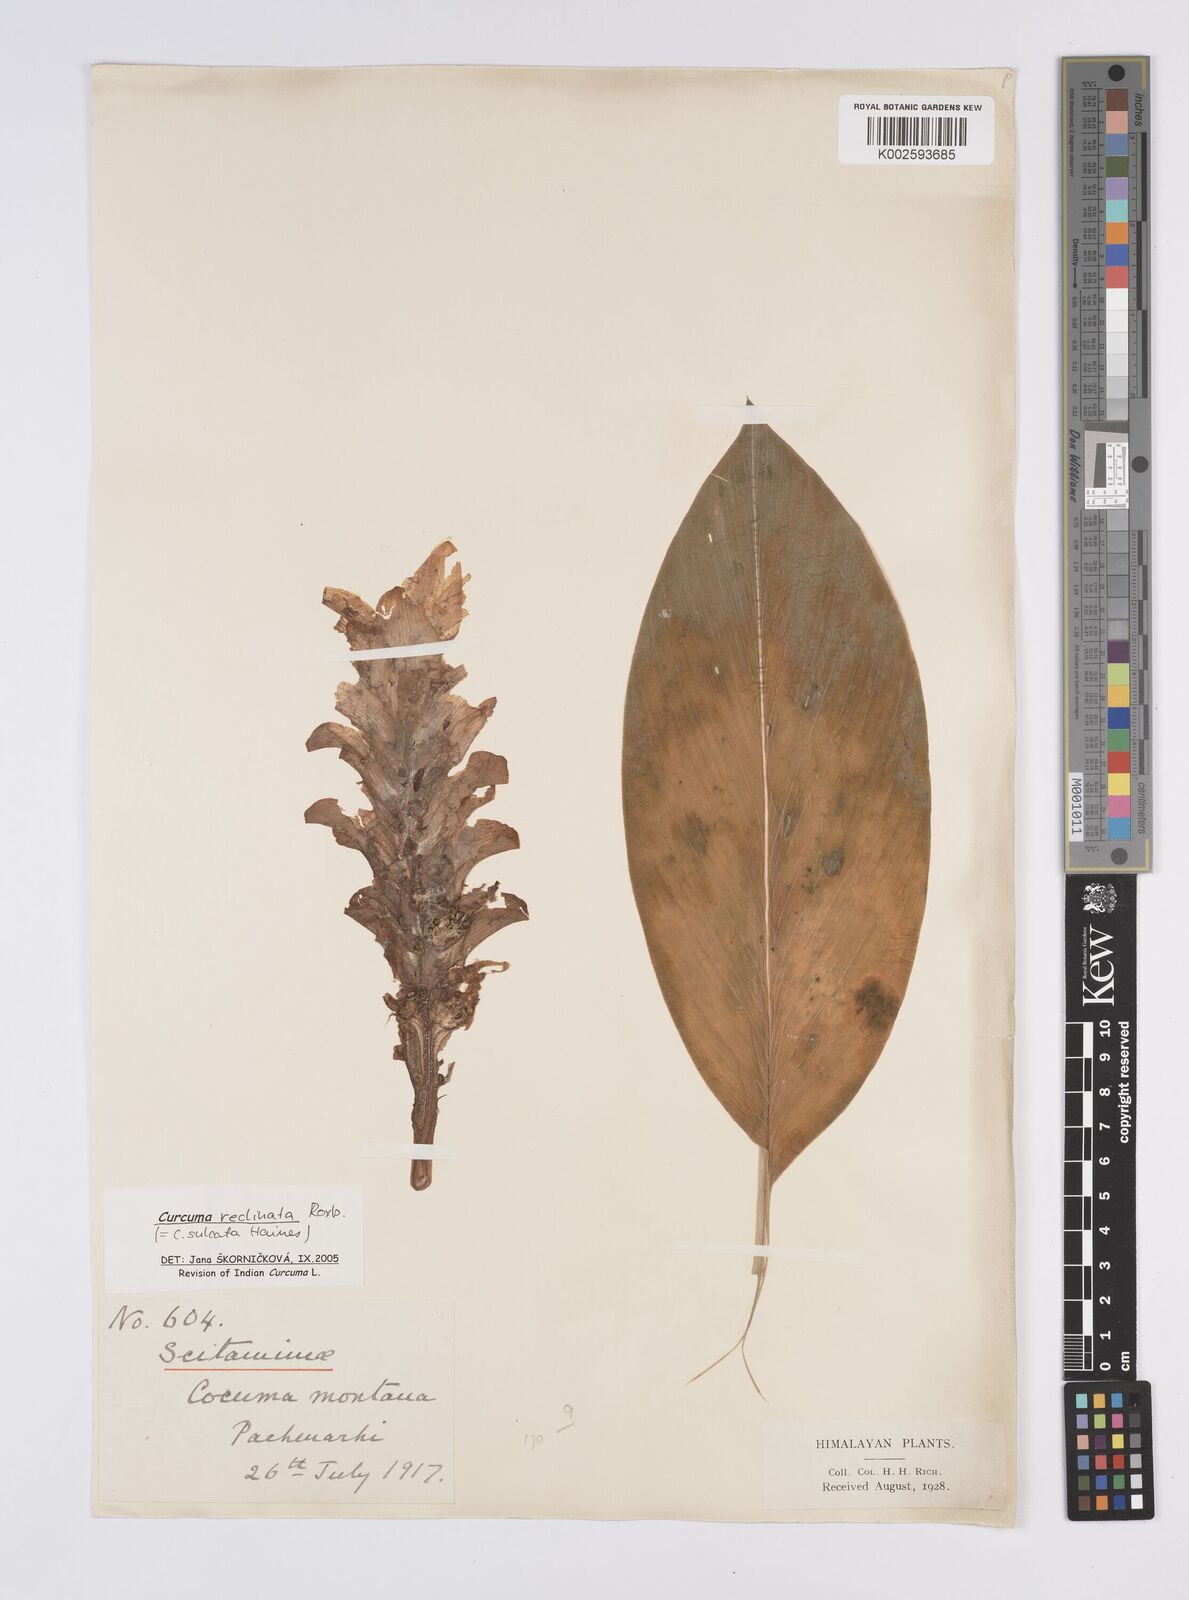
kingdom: Plantae
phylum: Tracheophyta
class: Liliopsida
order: Zingiberales
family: Zingiberaceae
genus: Curcuma
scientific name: Curcuma reclinata
